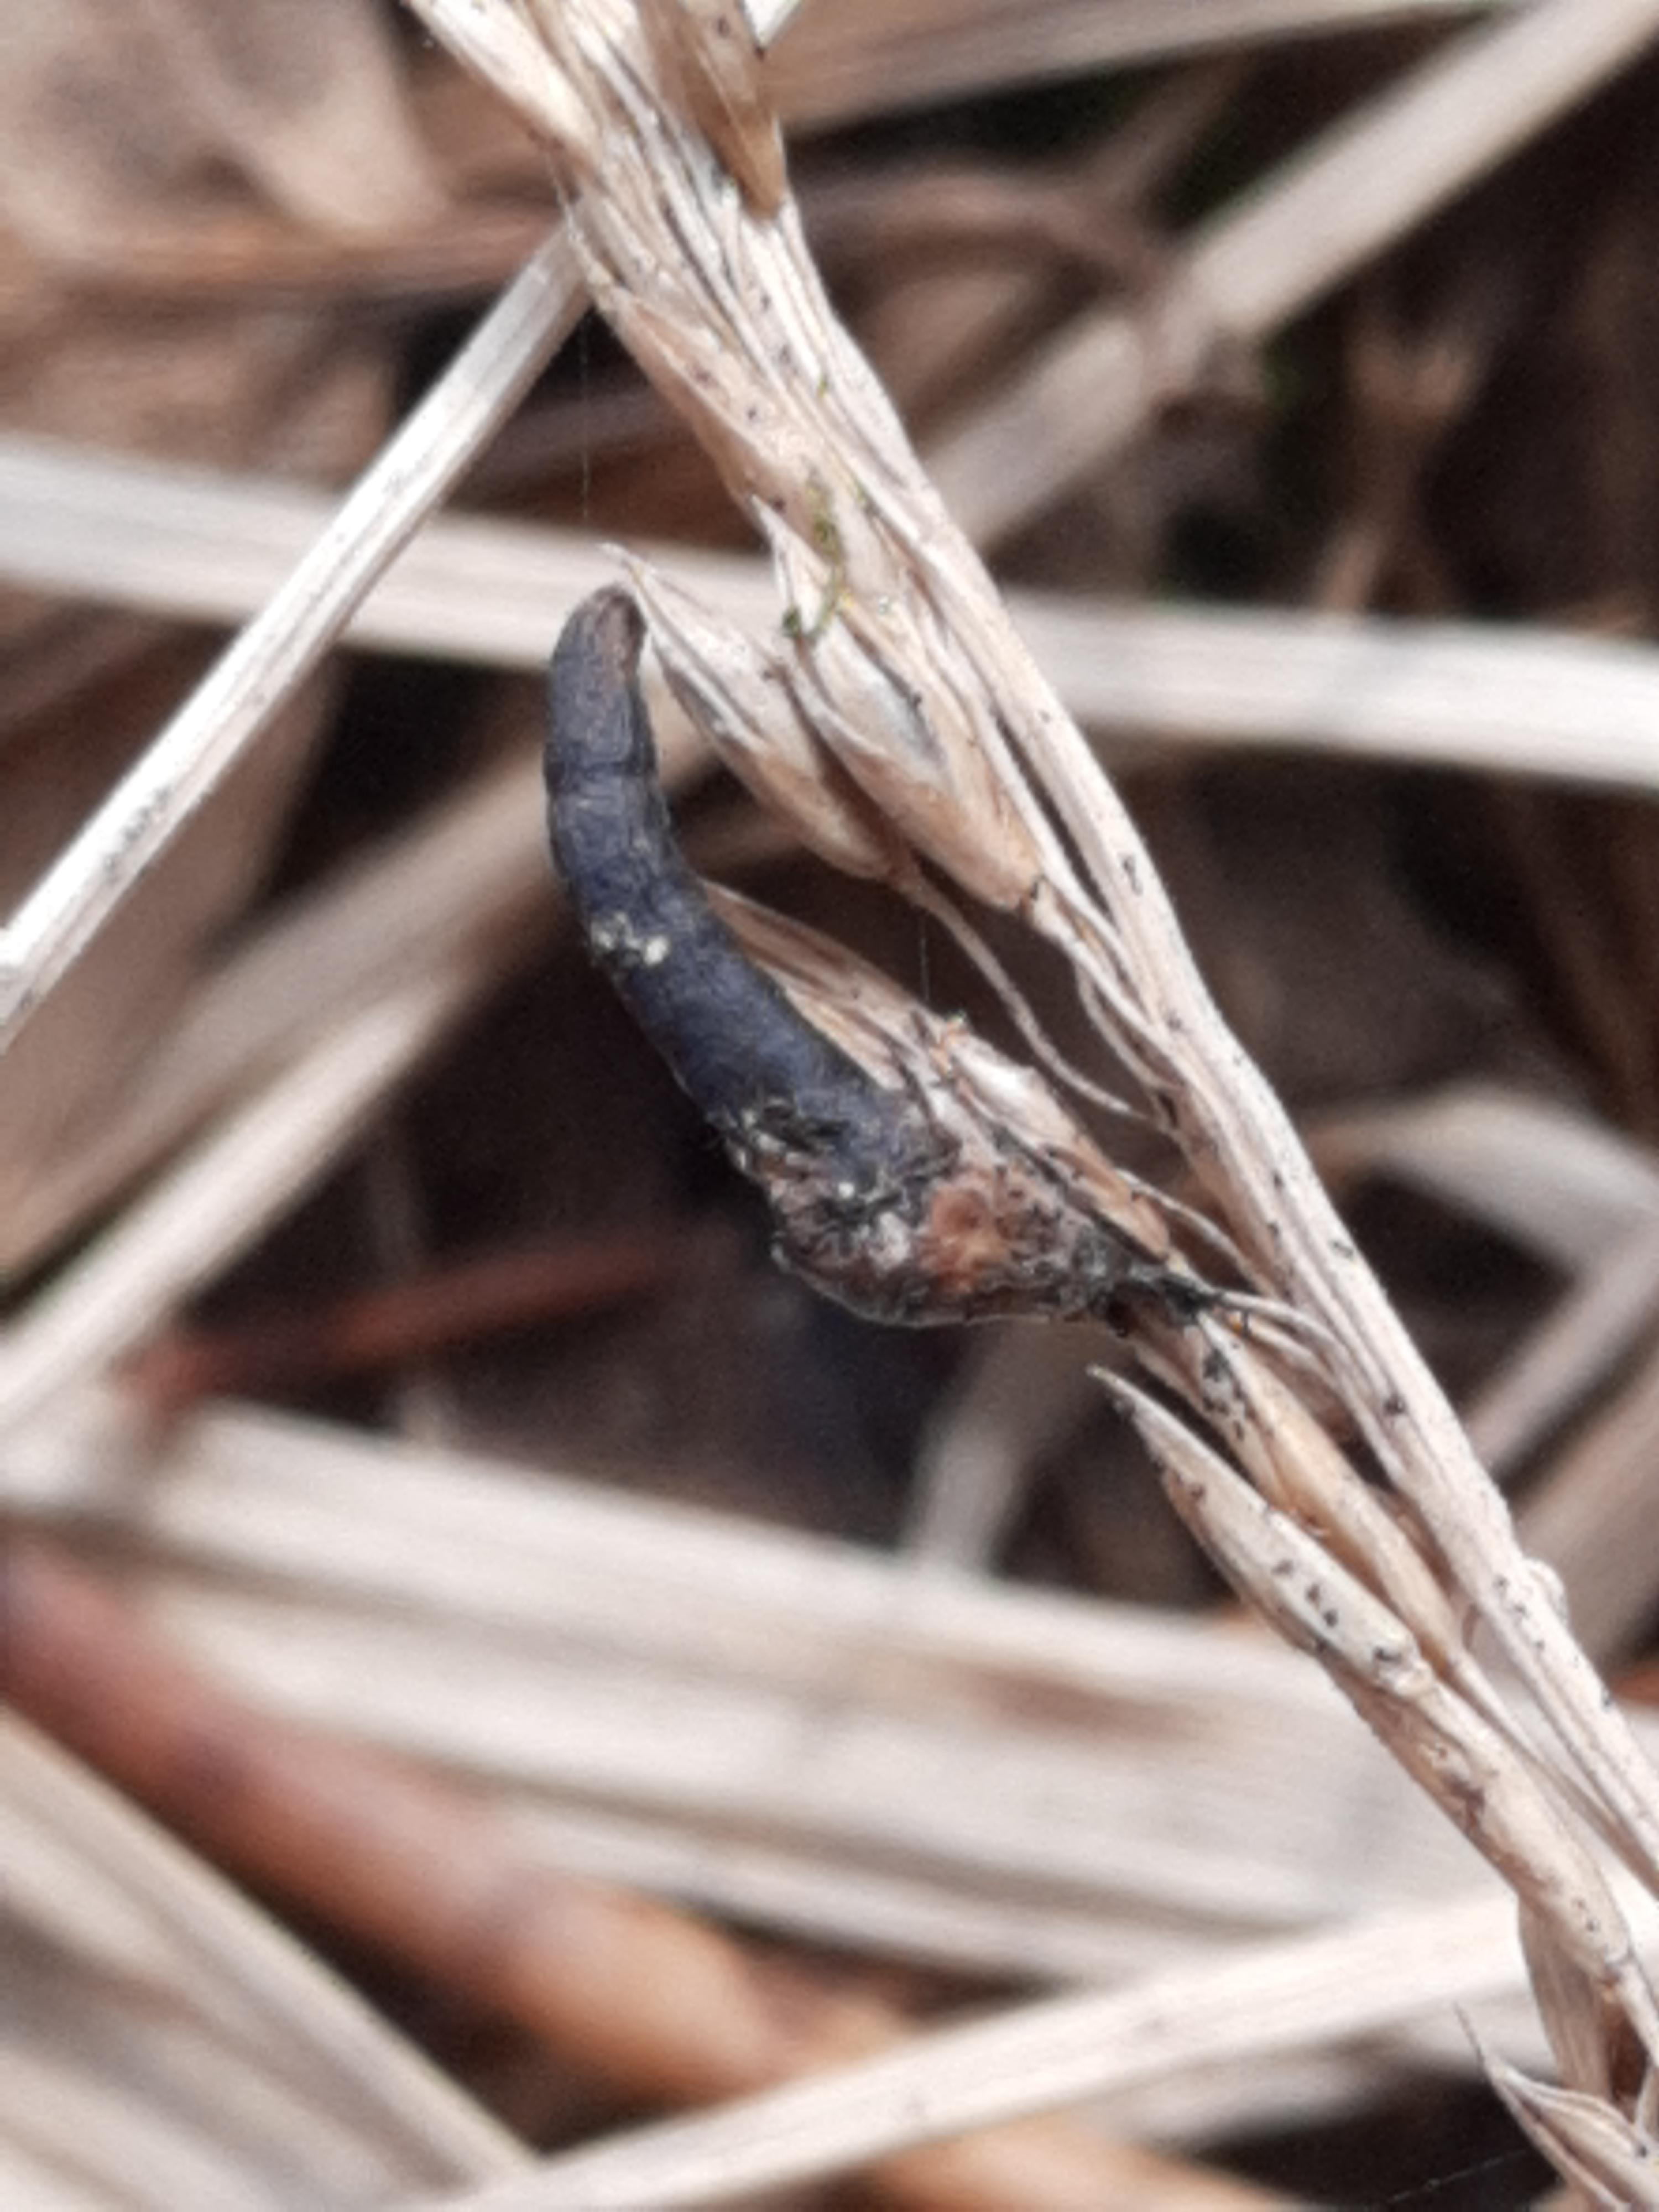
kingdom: Fungi
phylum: Ascomycota
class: Sordariomycetes
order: Hypocreales
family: Clavicipitaceae
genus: Claviceps
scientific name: Claviceps purpurea
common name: almindelig meldrøjer
